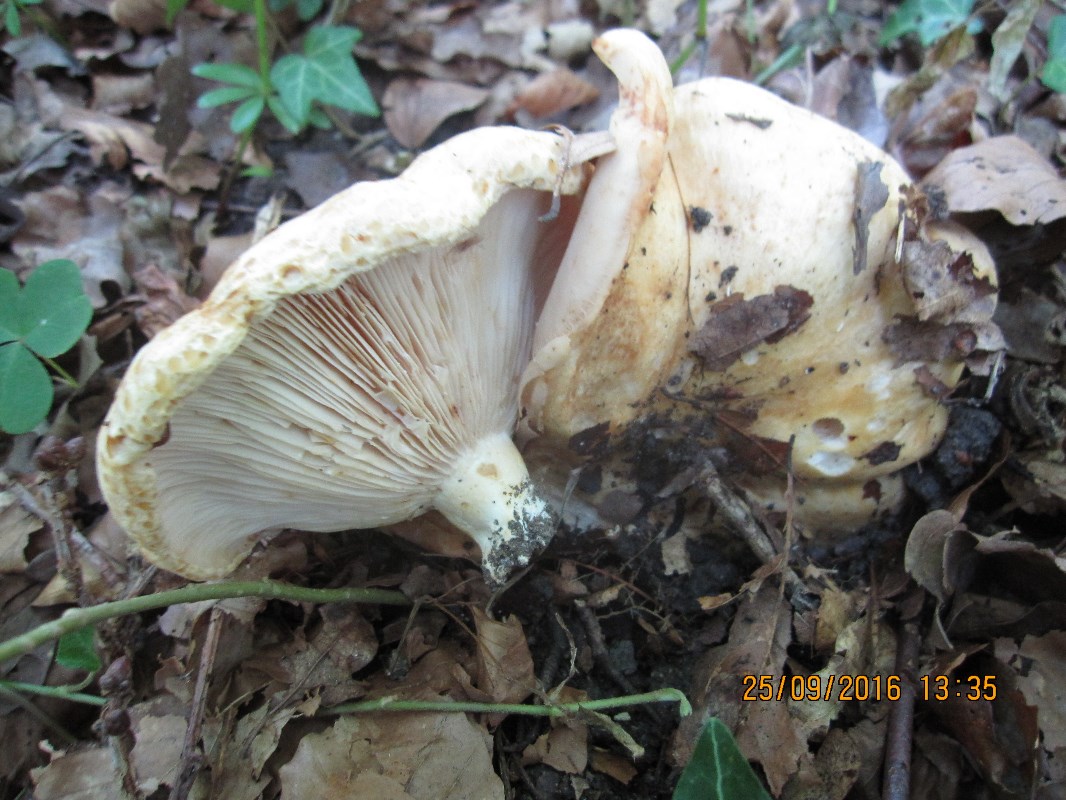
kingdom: Fungi
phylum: Basidiomycota
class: Agaricomycetes
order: Russulales
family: Russulaceae
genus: Lactarius
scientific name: Lactarius acerrimus
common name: brændende mælkehat
